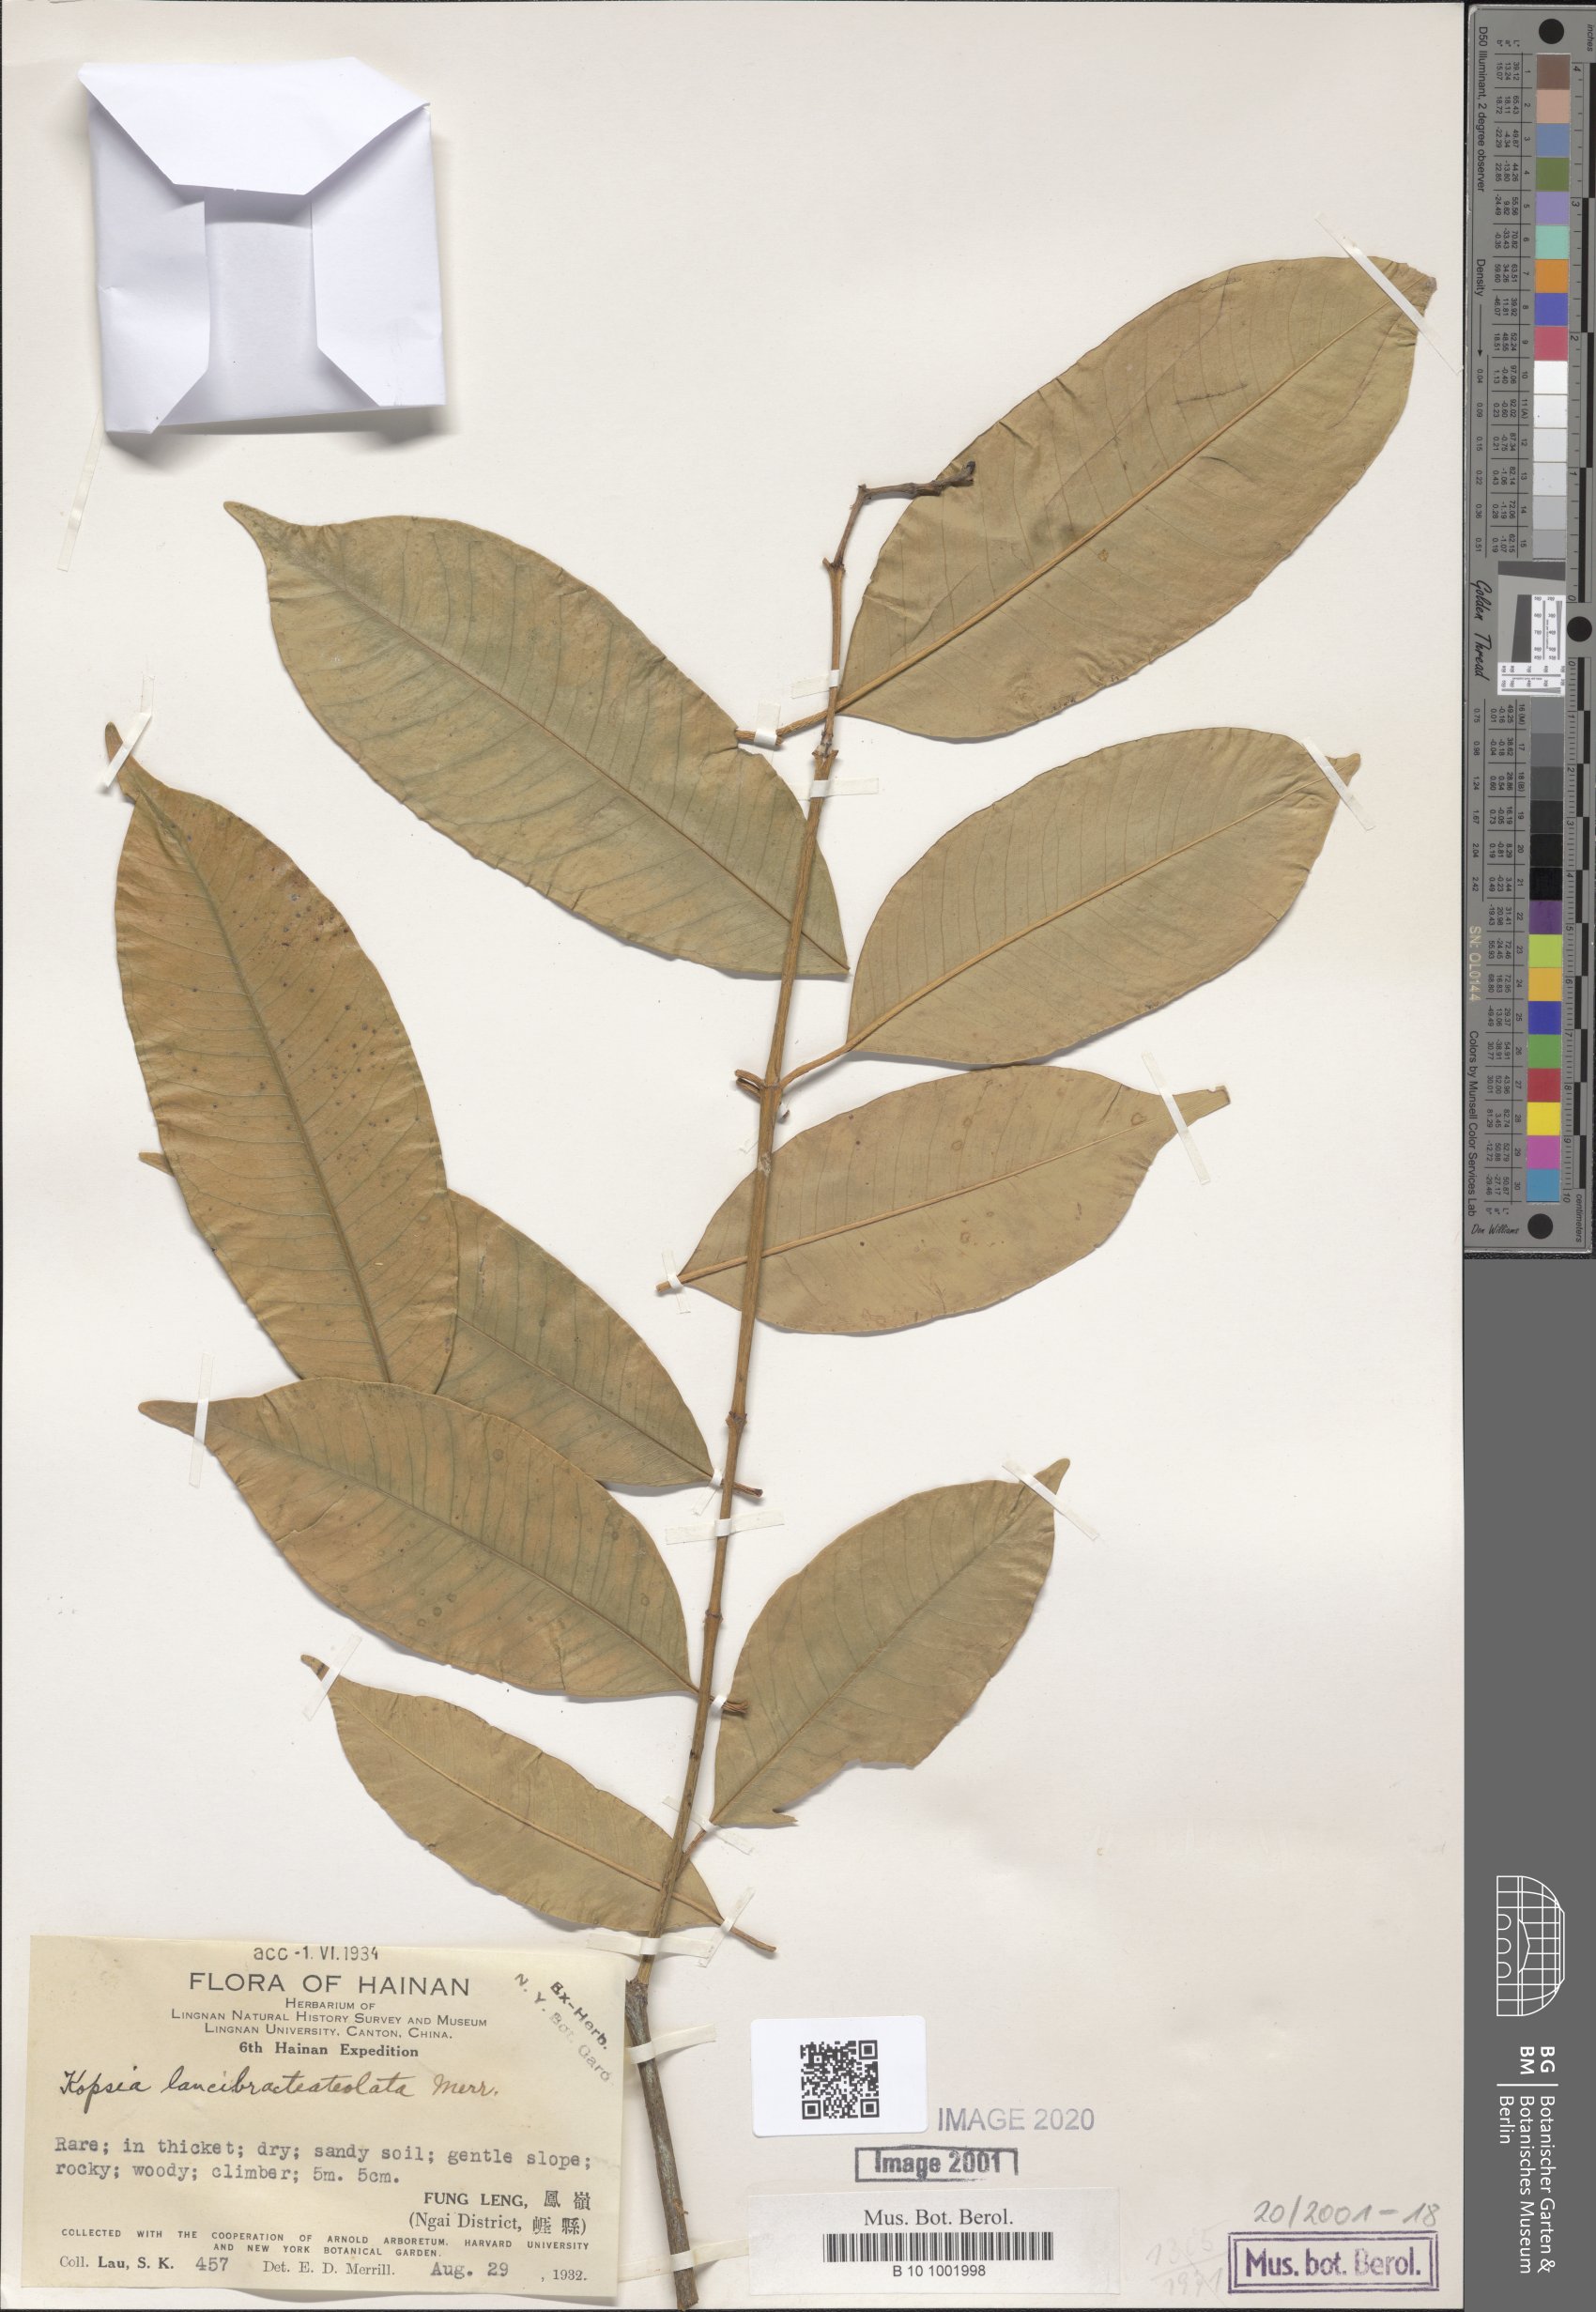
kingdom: Plantae
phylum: Tracheophyta
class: Magnoliopsida
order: Gentianales
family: Apocynaceae
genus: Kopsia
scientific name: Kopsia arborea
